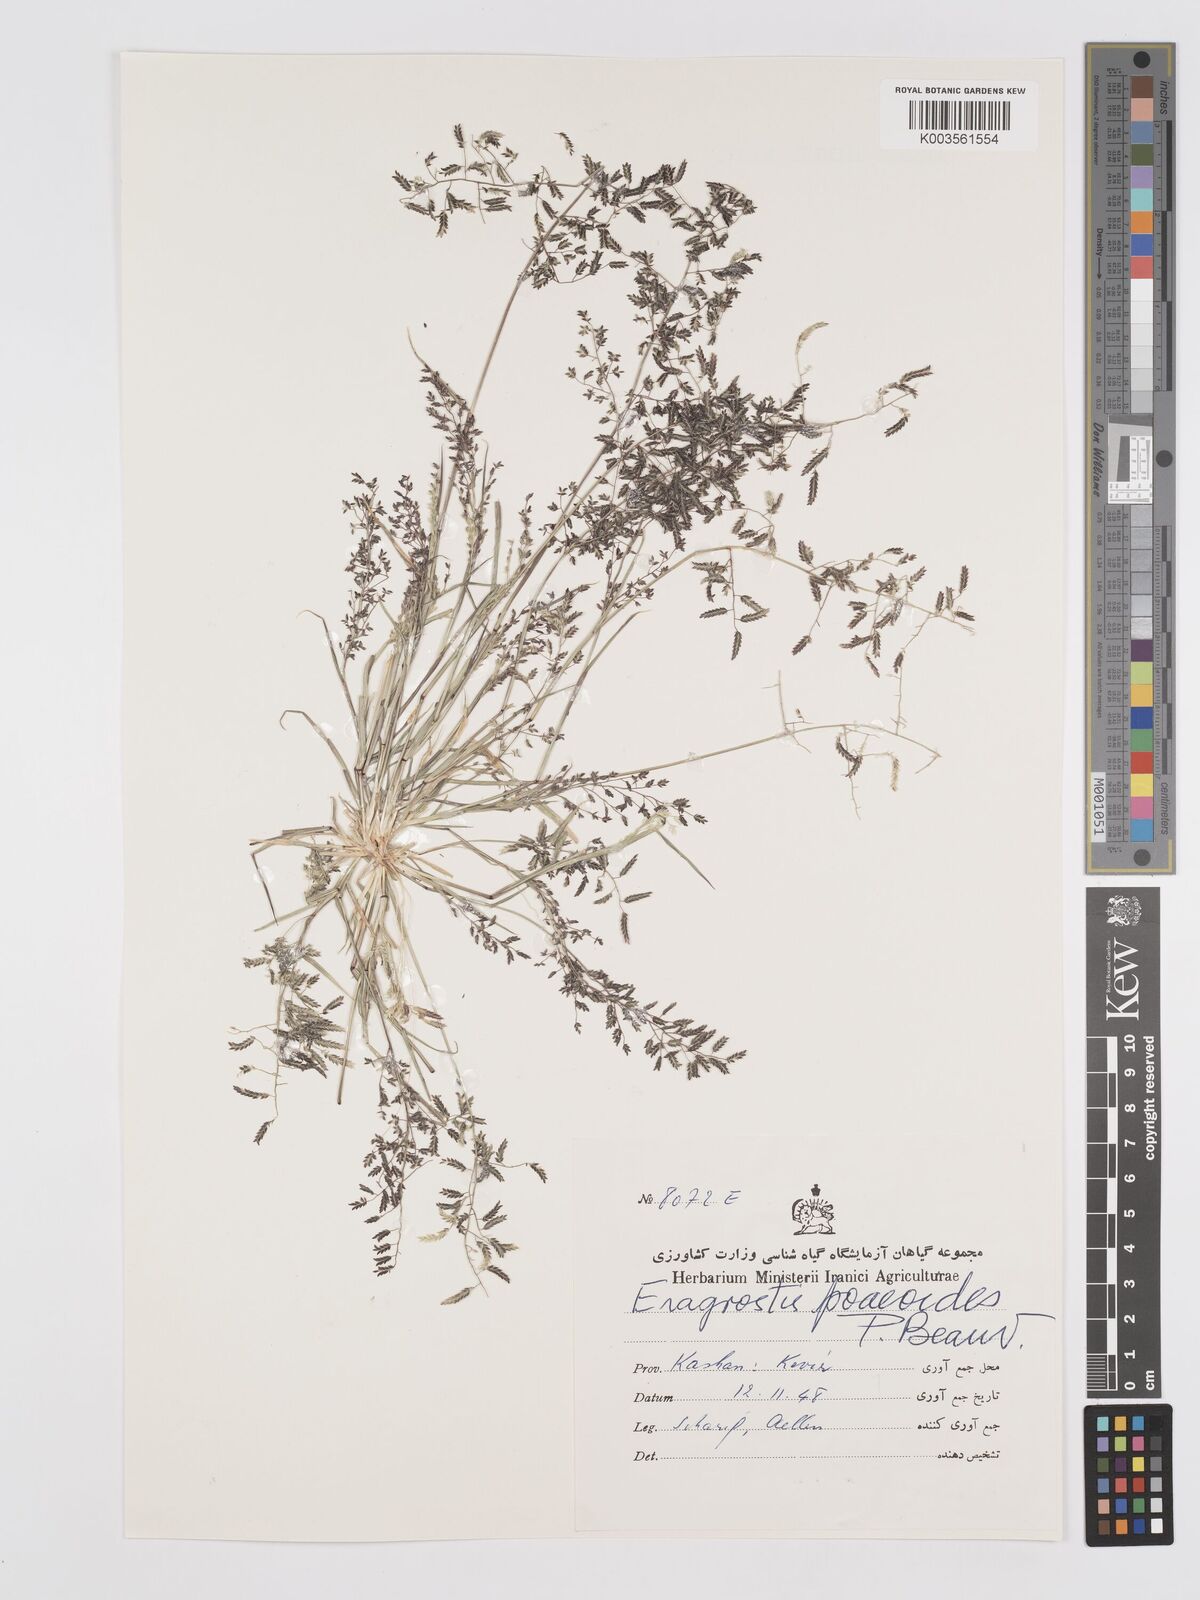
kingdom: Plantae
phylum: Tracheophyta
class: Liliopsida
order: Poales
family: Poaceae
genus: Eragrostis
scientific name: Eragrostis minor
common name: Small love-grass
